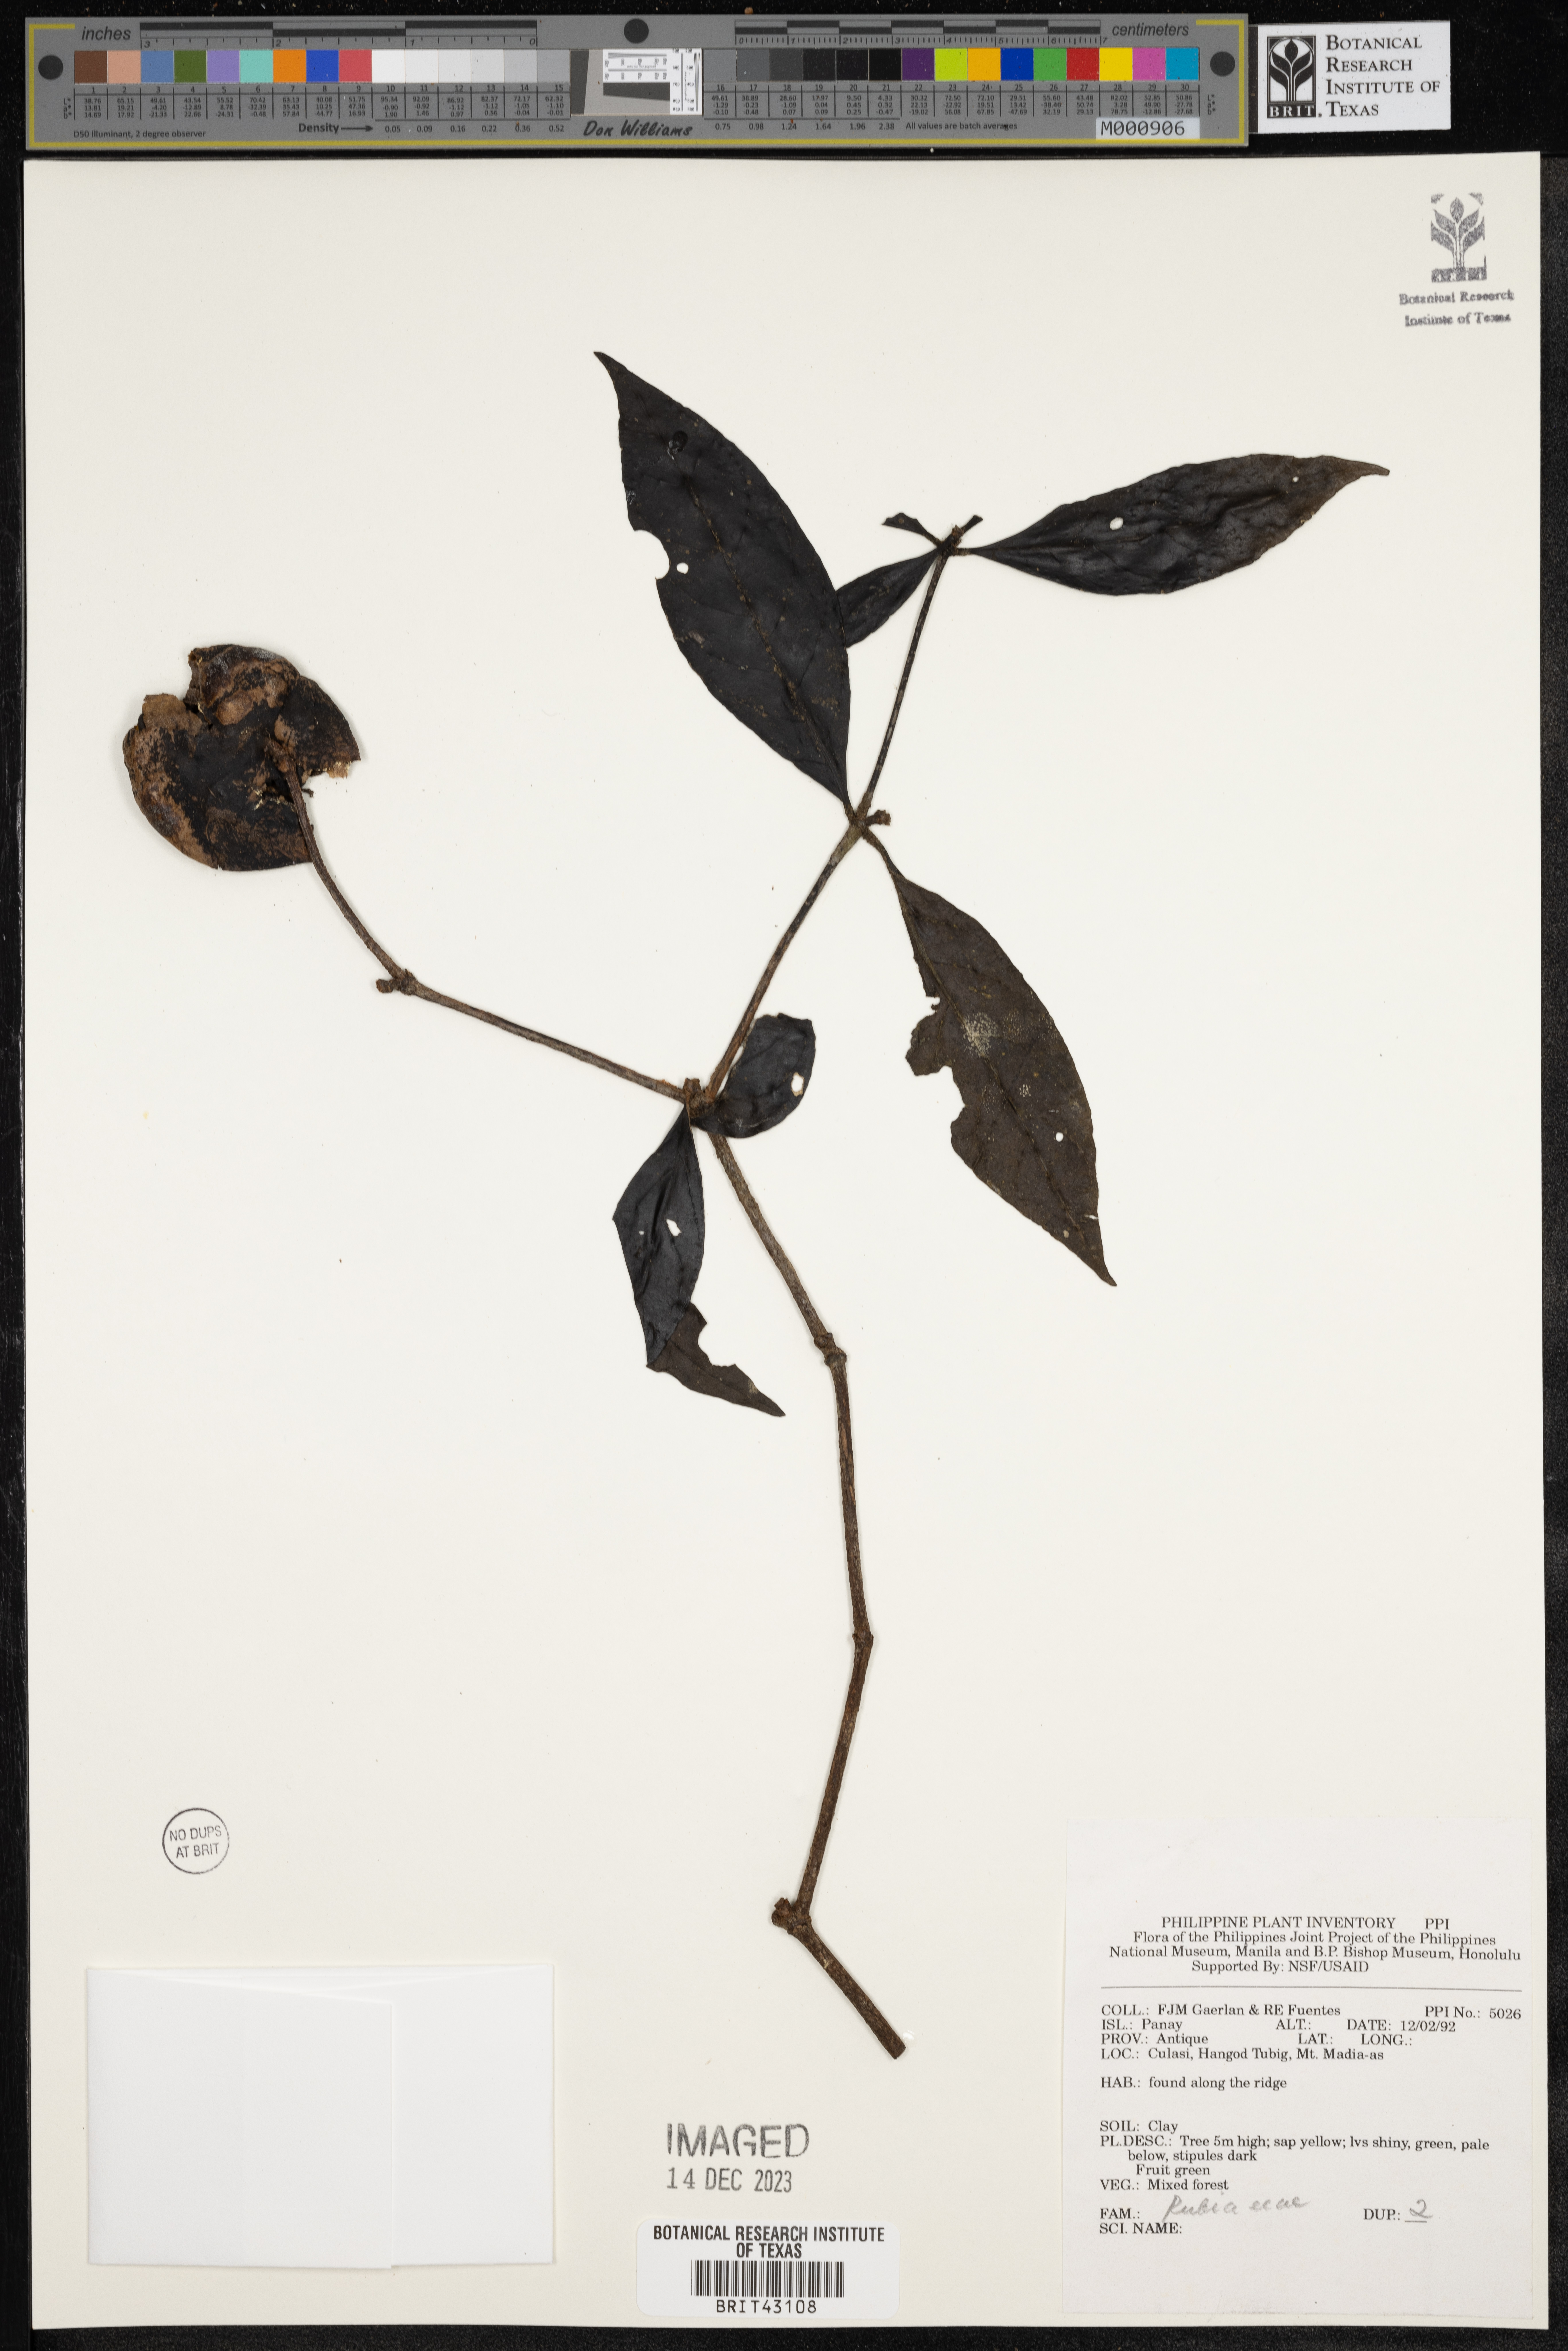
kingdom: Plantae
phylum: Tracheophyta
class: Magnoliopsida
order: Gentianales
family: Rubiaceae
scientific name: Rubiaceae
